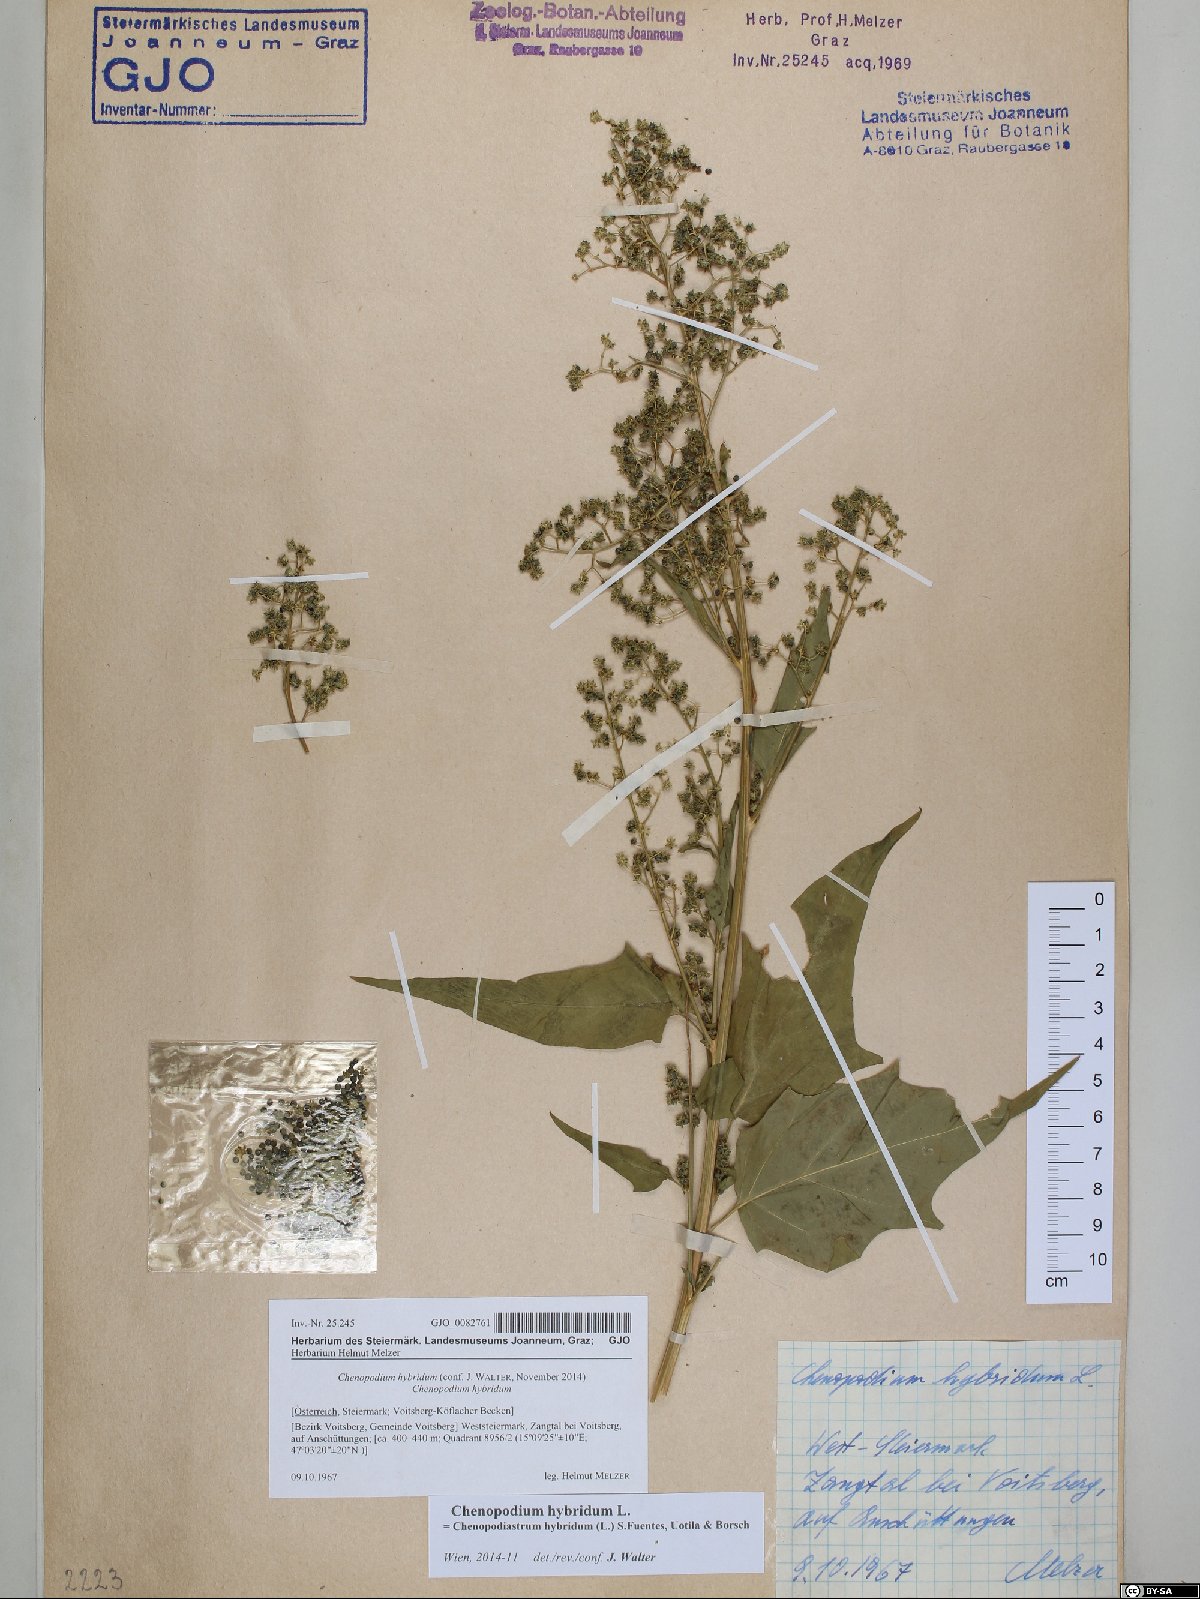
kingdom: Plantae
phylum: Tracheophyta
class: Magnoliopsida
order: Caryophyllales
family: Amaranthaceae
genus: Chenopodiastrum
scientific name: Chenopodiastrum hybridum
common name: Mapleleaf goosefoot
